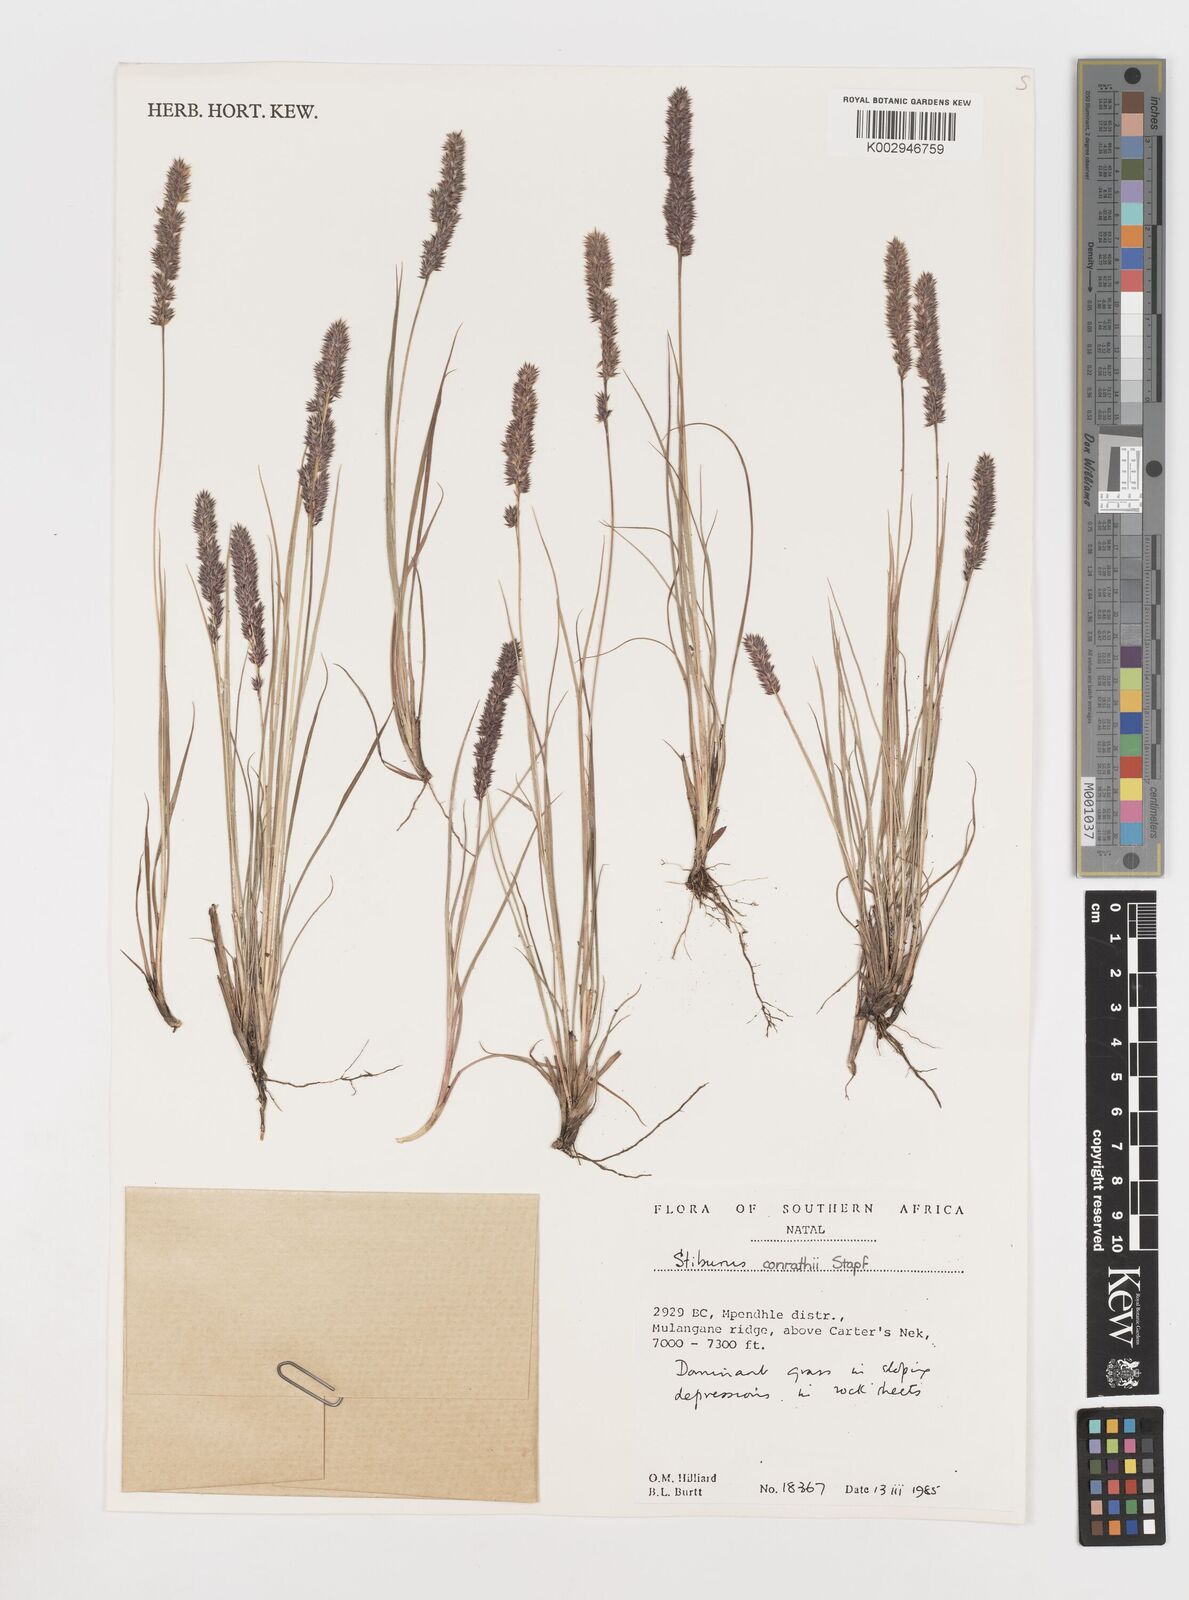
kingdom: Plantae
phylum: Tracheophyta
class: Liliopsida
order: Poales
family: Poaceae
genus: Stiburus
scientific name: Stiburus conrathii
